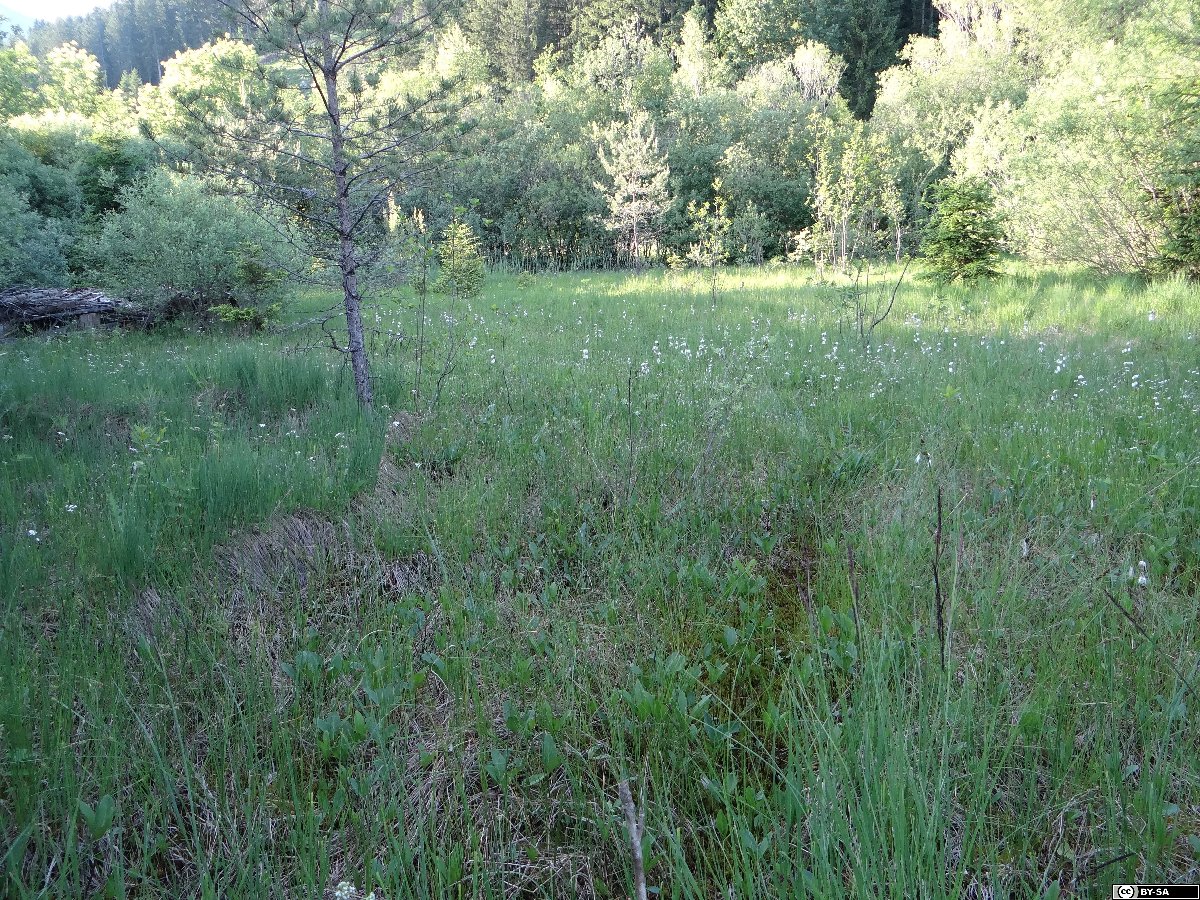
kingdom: Plantae
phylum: Tracheophyta
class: Liliopsida
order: Poales
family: Cyperaceae
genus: Carex
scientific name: Carex heleonastes
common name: Hudson bay sedge
